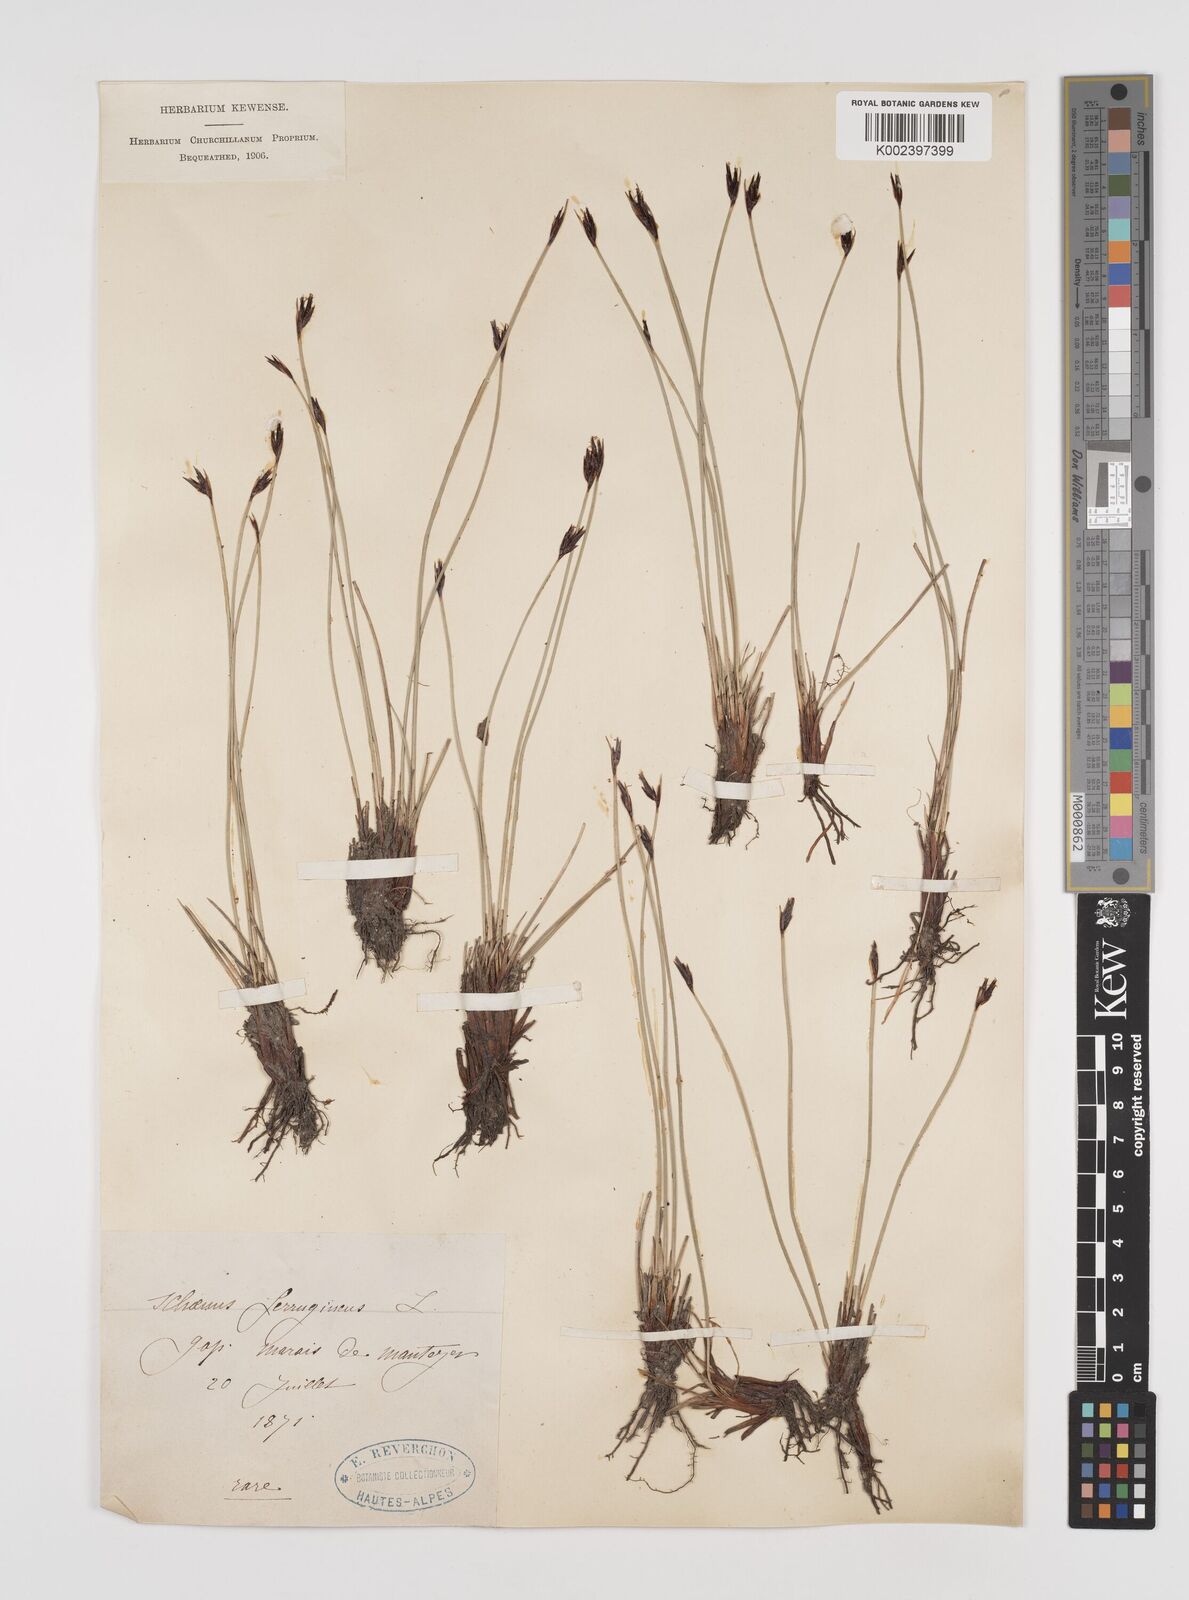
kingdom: Plantae
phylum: Tracheophyta
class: Liliopsida
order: Poales
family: Cyperaceae
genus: Schoenus
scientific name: Schoenus ferrugineus
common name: Brown bog-rush
